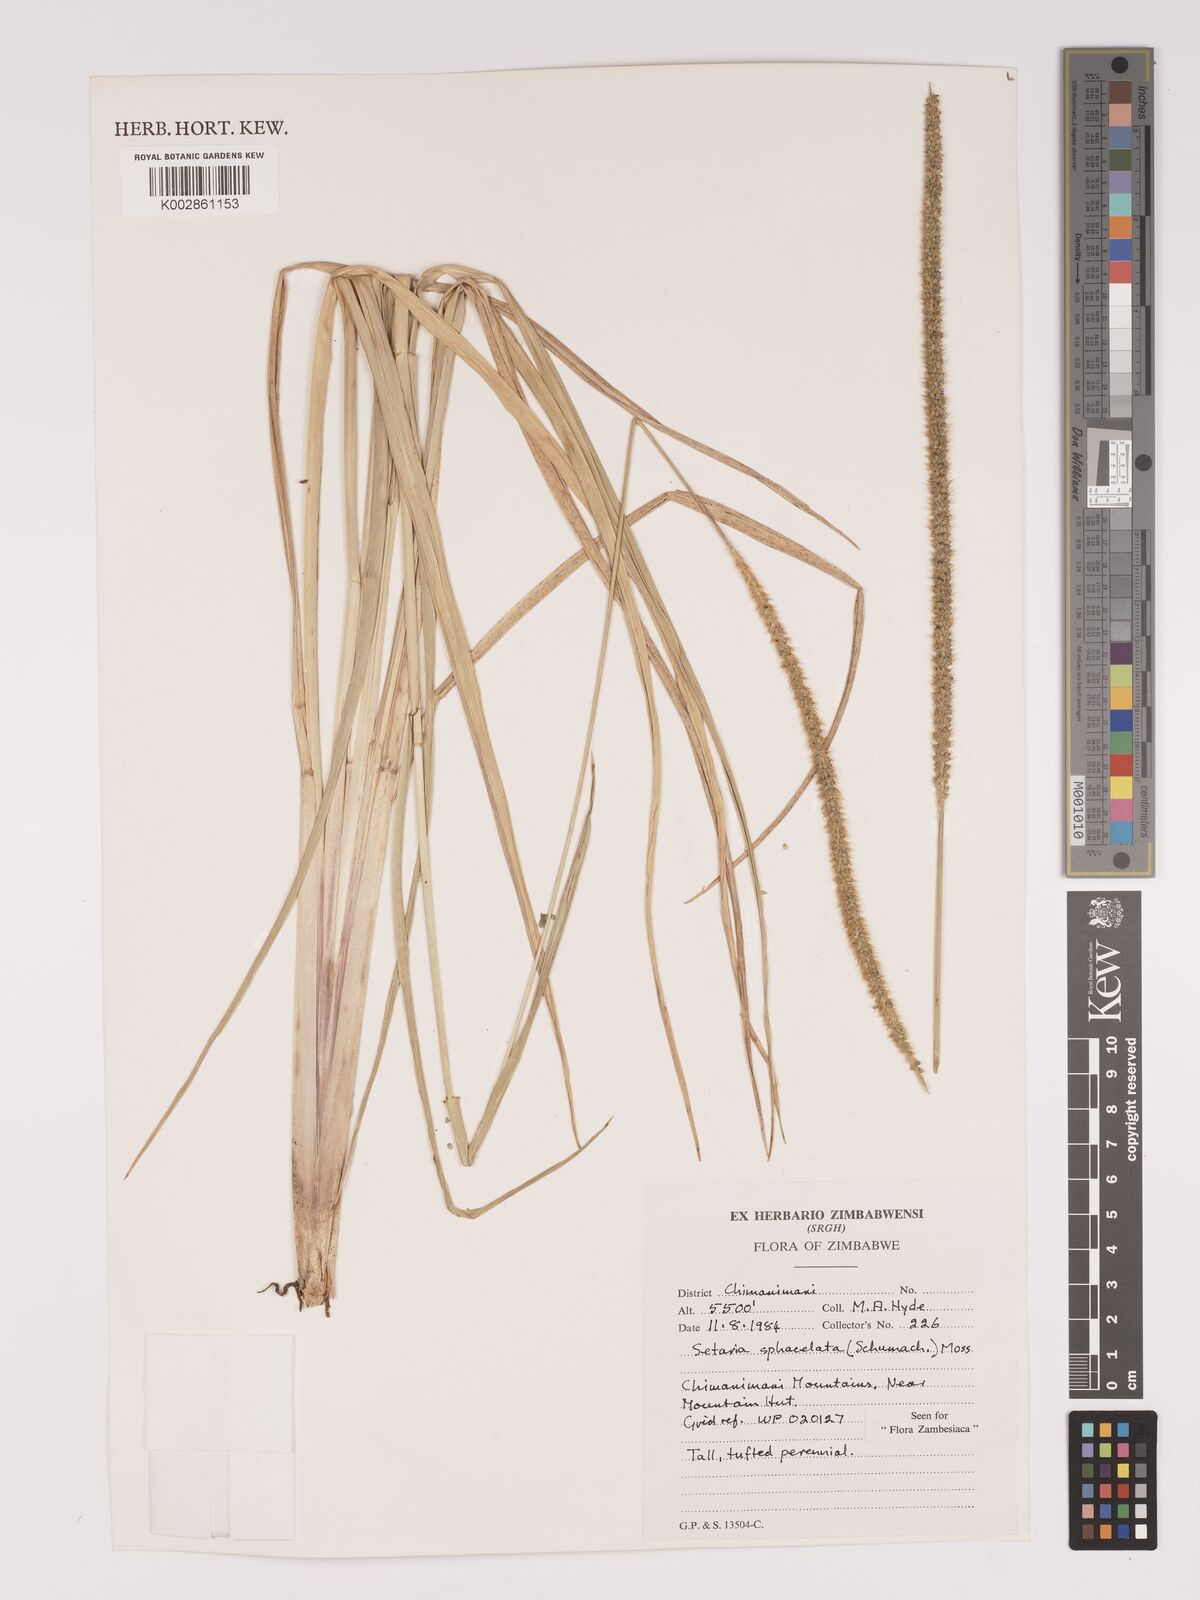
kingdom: Plantae
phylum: Tracheophyta
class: Liliopsida
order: Poales
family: Poaceae
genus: Setaria
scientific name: Setaria sphacelata
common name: African bristlegrass
